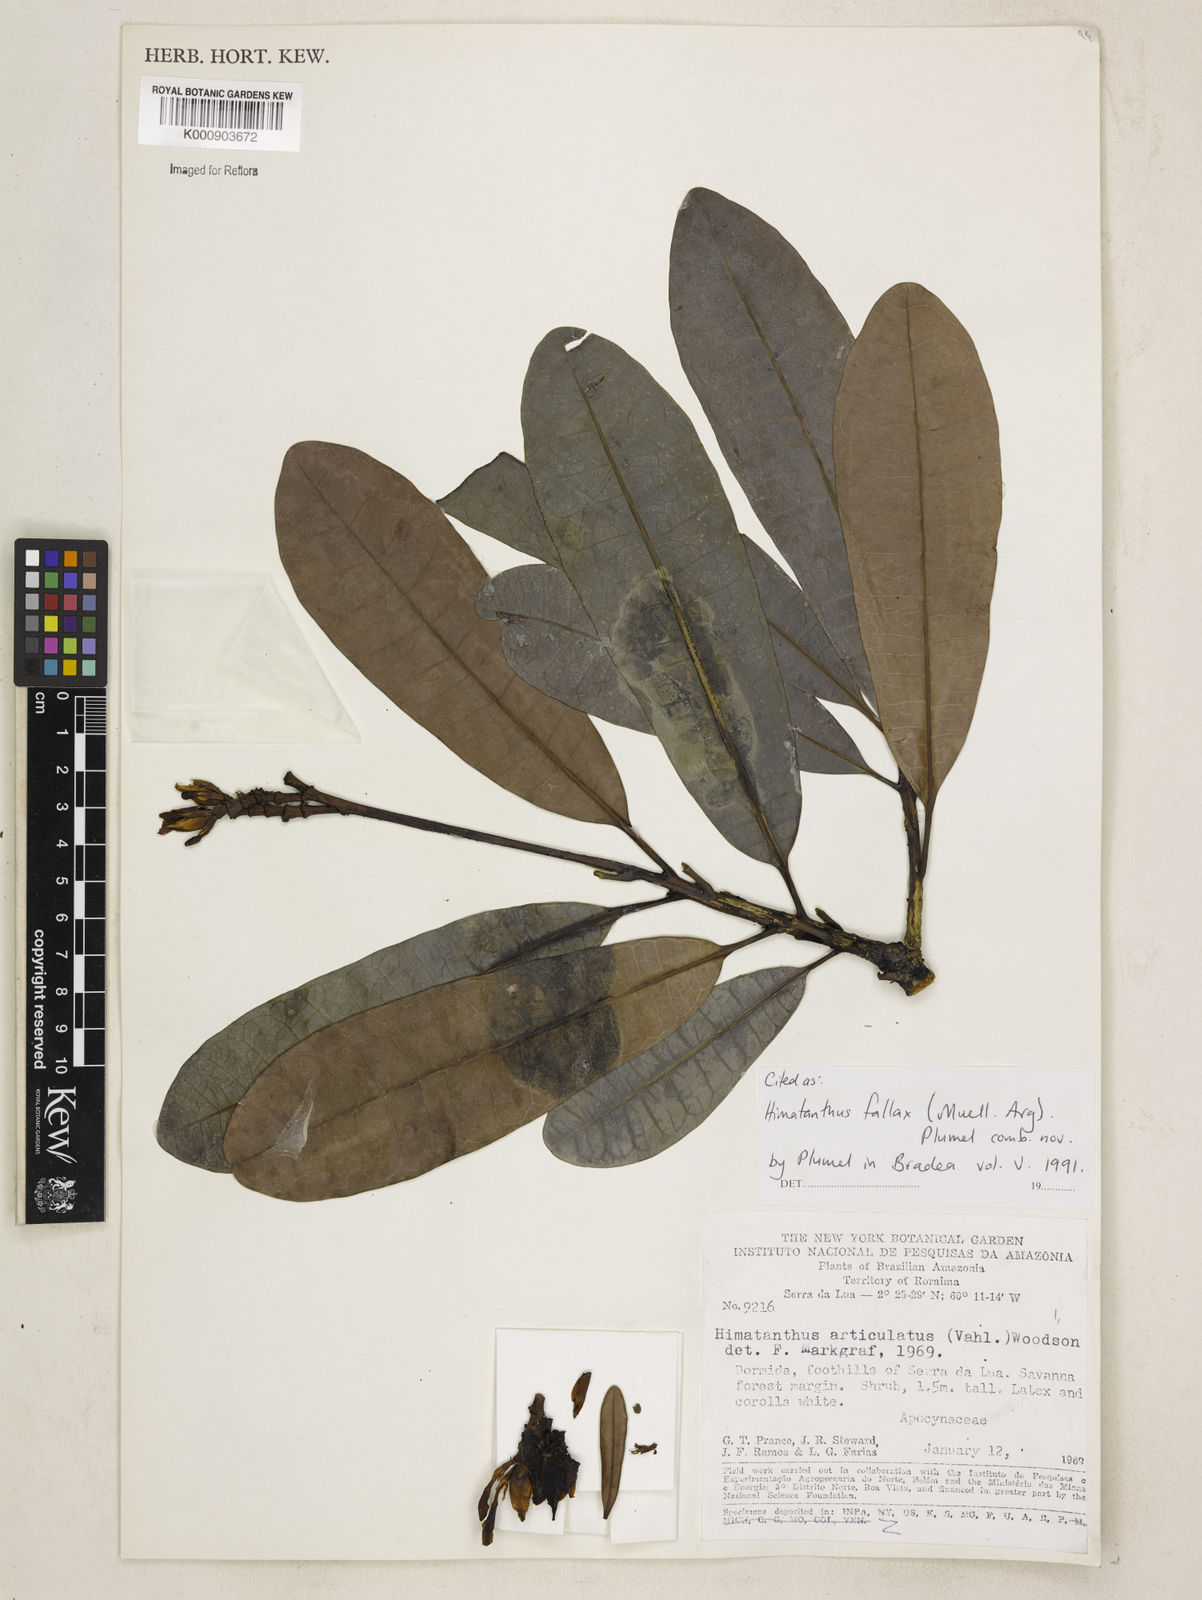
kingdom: Plantae
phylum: Tracheophyta
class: Magnoliopsida
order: Gentianales
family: Apocynaceae
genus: Himatanthus
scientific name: Himatanthus
